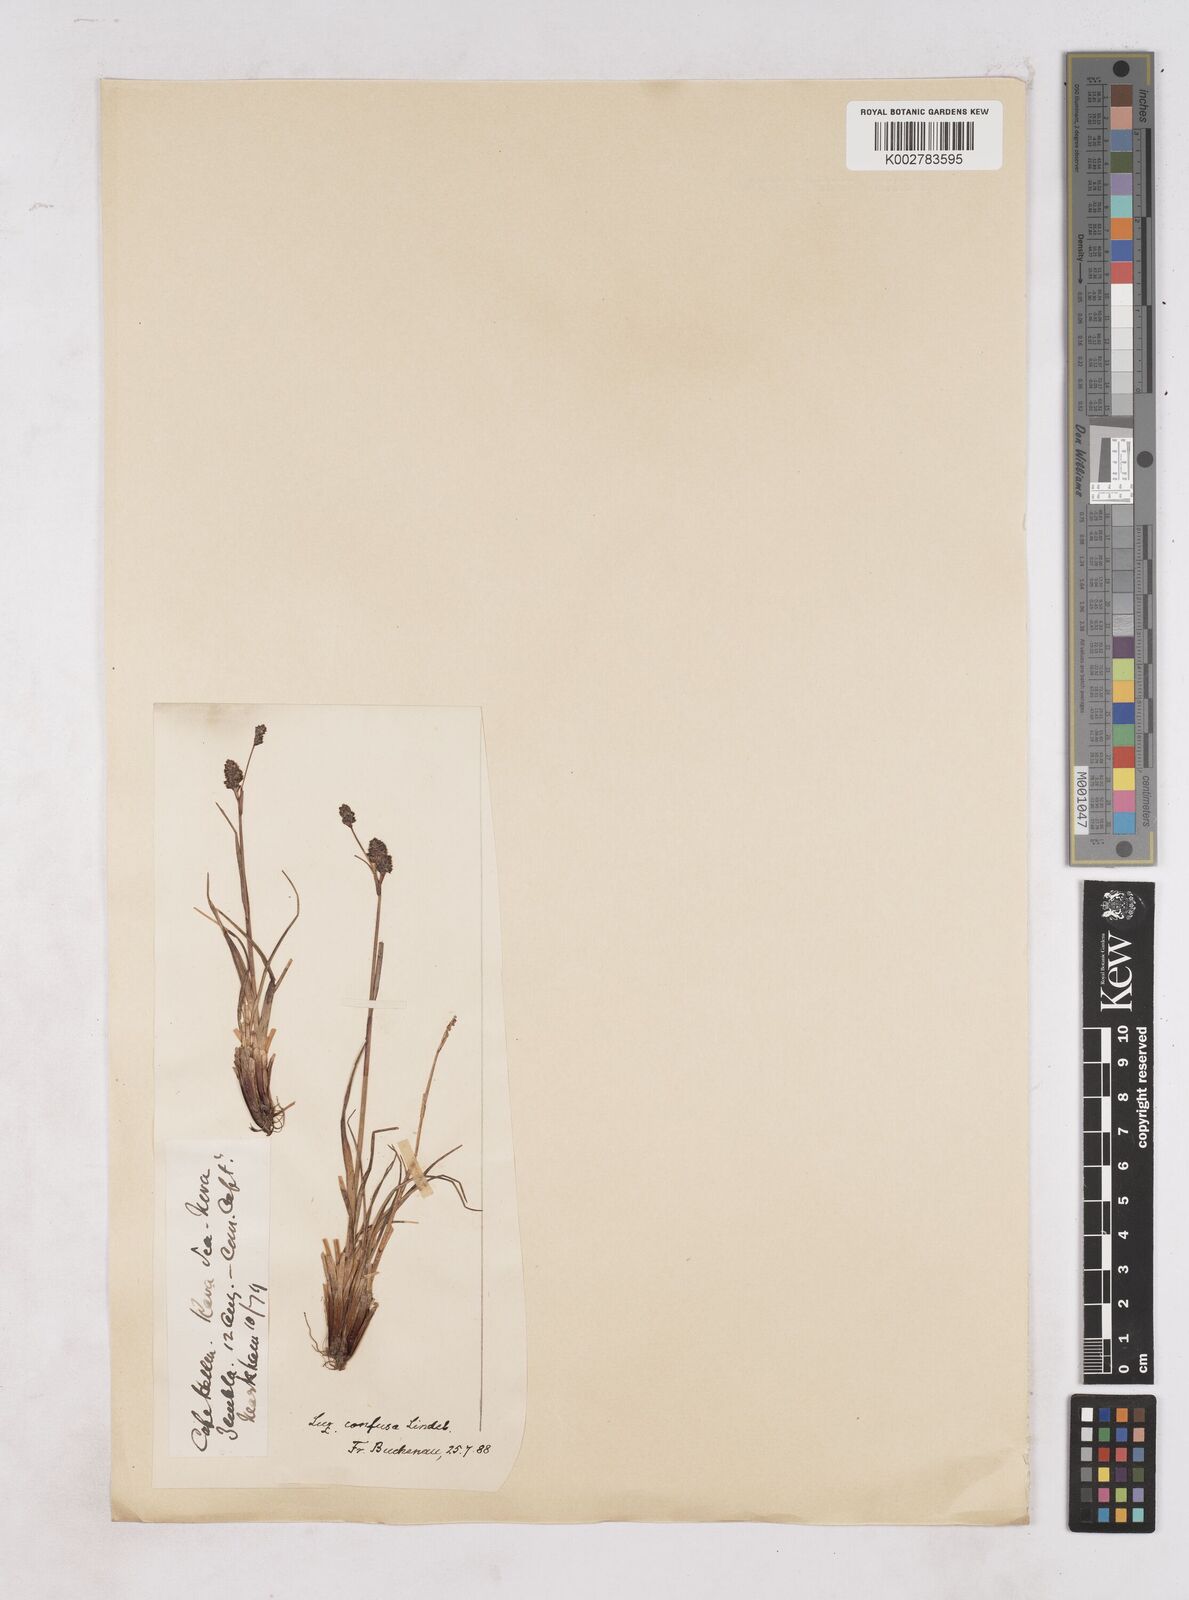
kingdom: Plantae
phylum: Tracheophyta
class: Liliopsida
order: Poales
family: Juncaceae
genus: Luzula
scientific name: Luzula
